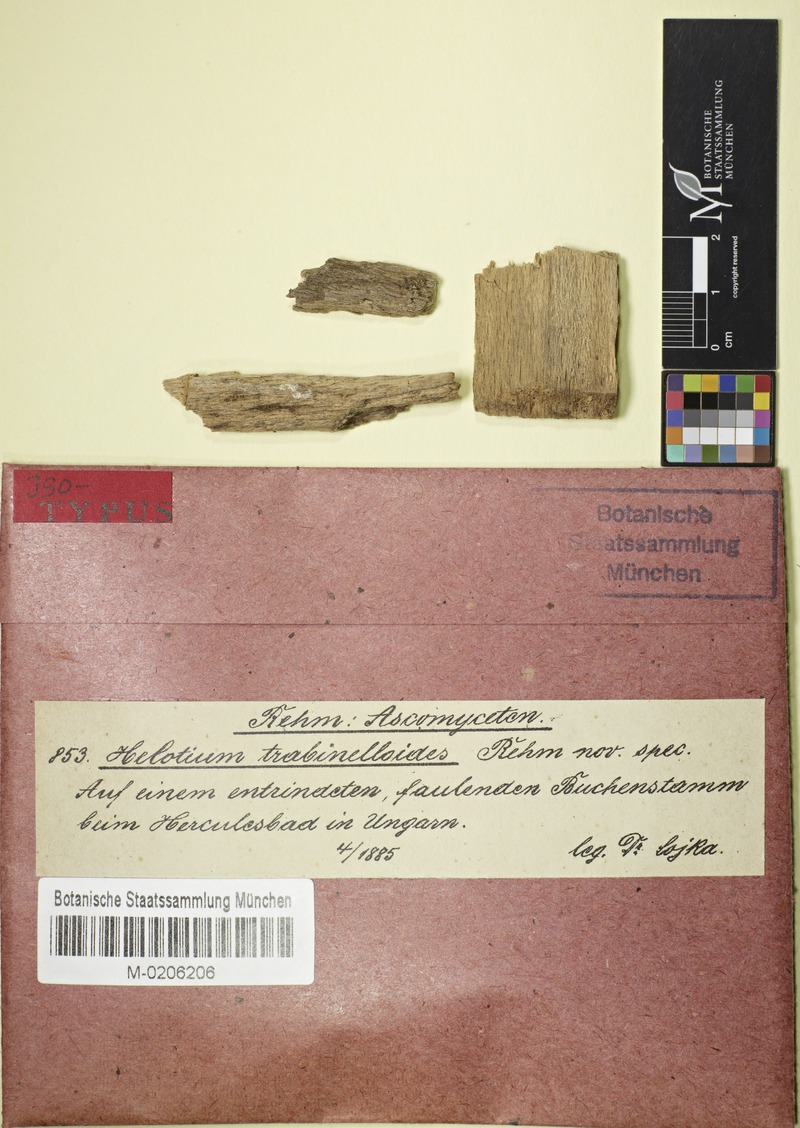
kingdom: Fungi
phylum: Ascomycota
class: Leotiomycetes
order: Helotiales
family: Arachnopezizaceae
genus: Arachnopeziza
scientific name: Arachnopeziza trabinelloides
